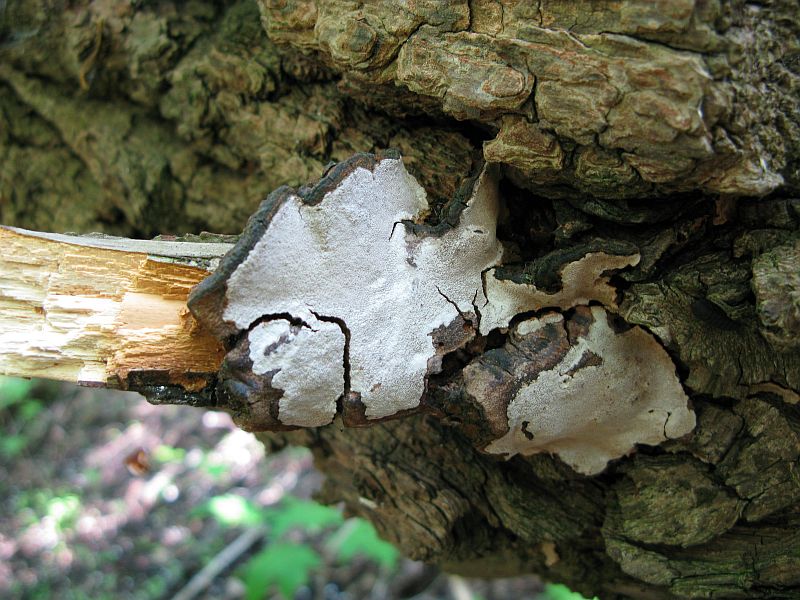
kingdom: Fungi
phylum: Basidiomycota
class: Agaricomycetes
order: Hymenochaetales
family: Hymenochaetaceae
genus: Phellinopsis
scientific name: Phellinopsis conchata
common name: pile-ildporesvamp
